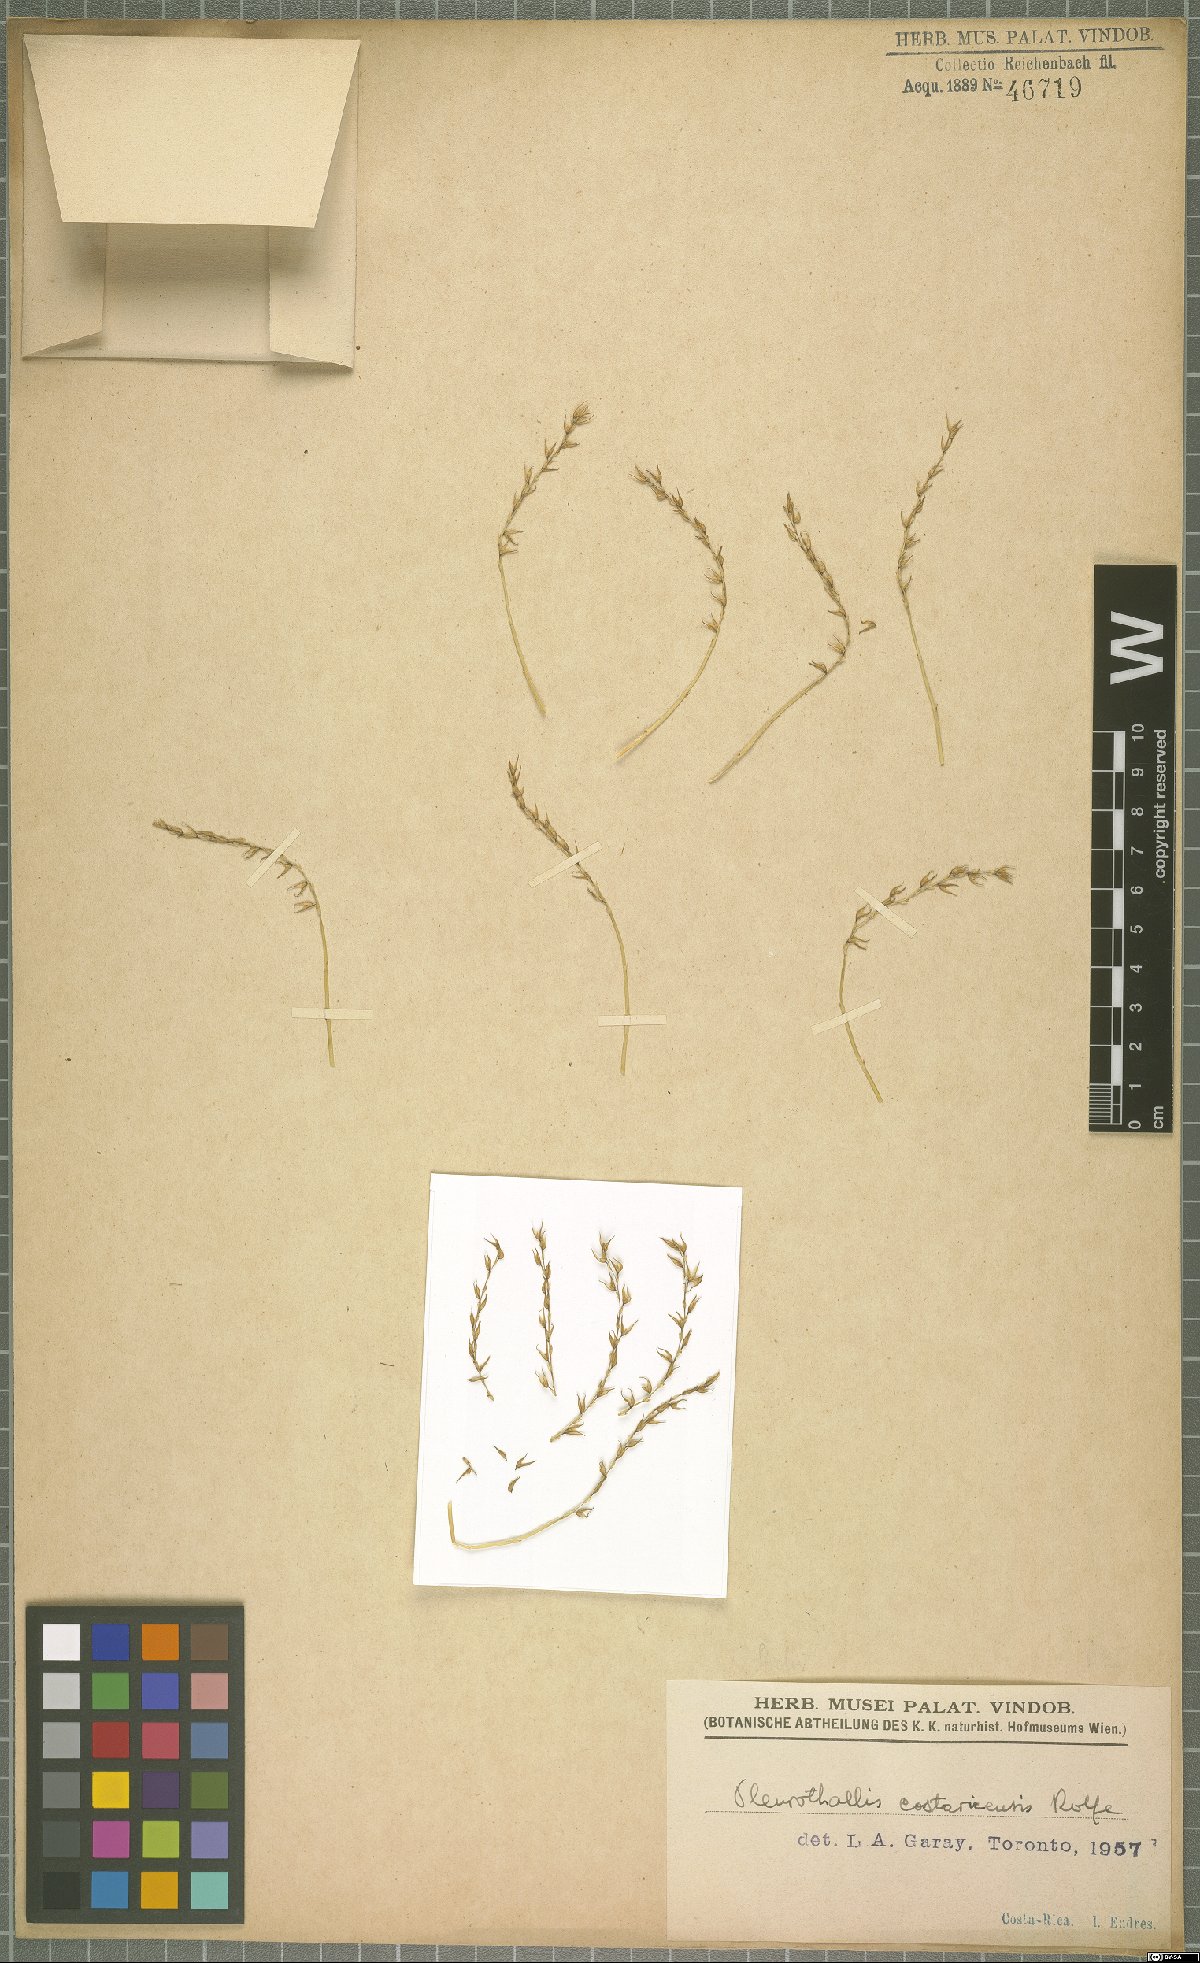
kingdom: Plantae
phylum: Tracheophyta
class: Liliopsida
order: Asparagales
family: Orchidaceae
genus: Specklinia
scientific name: Specklinia costaricensis
